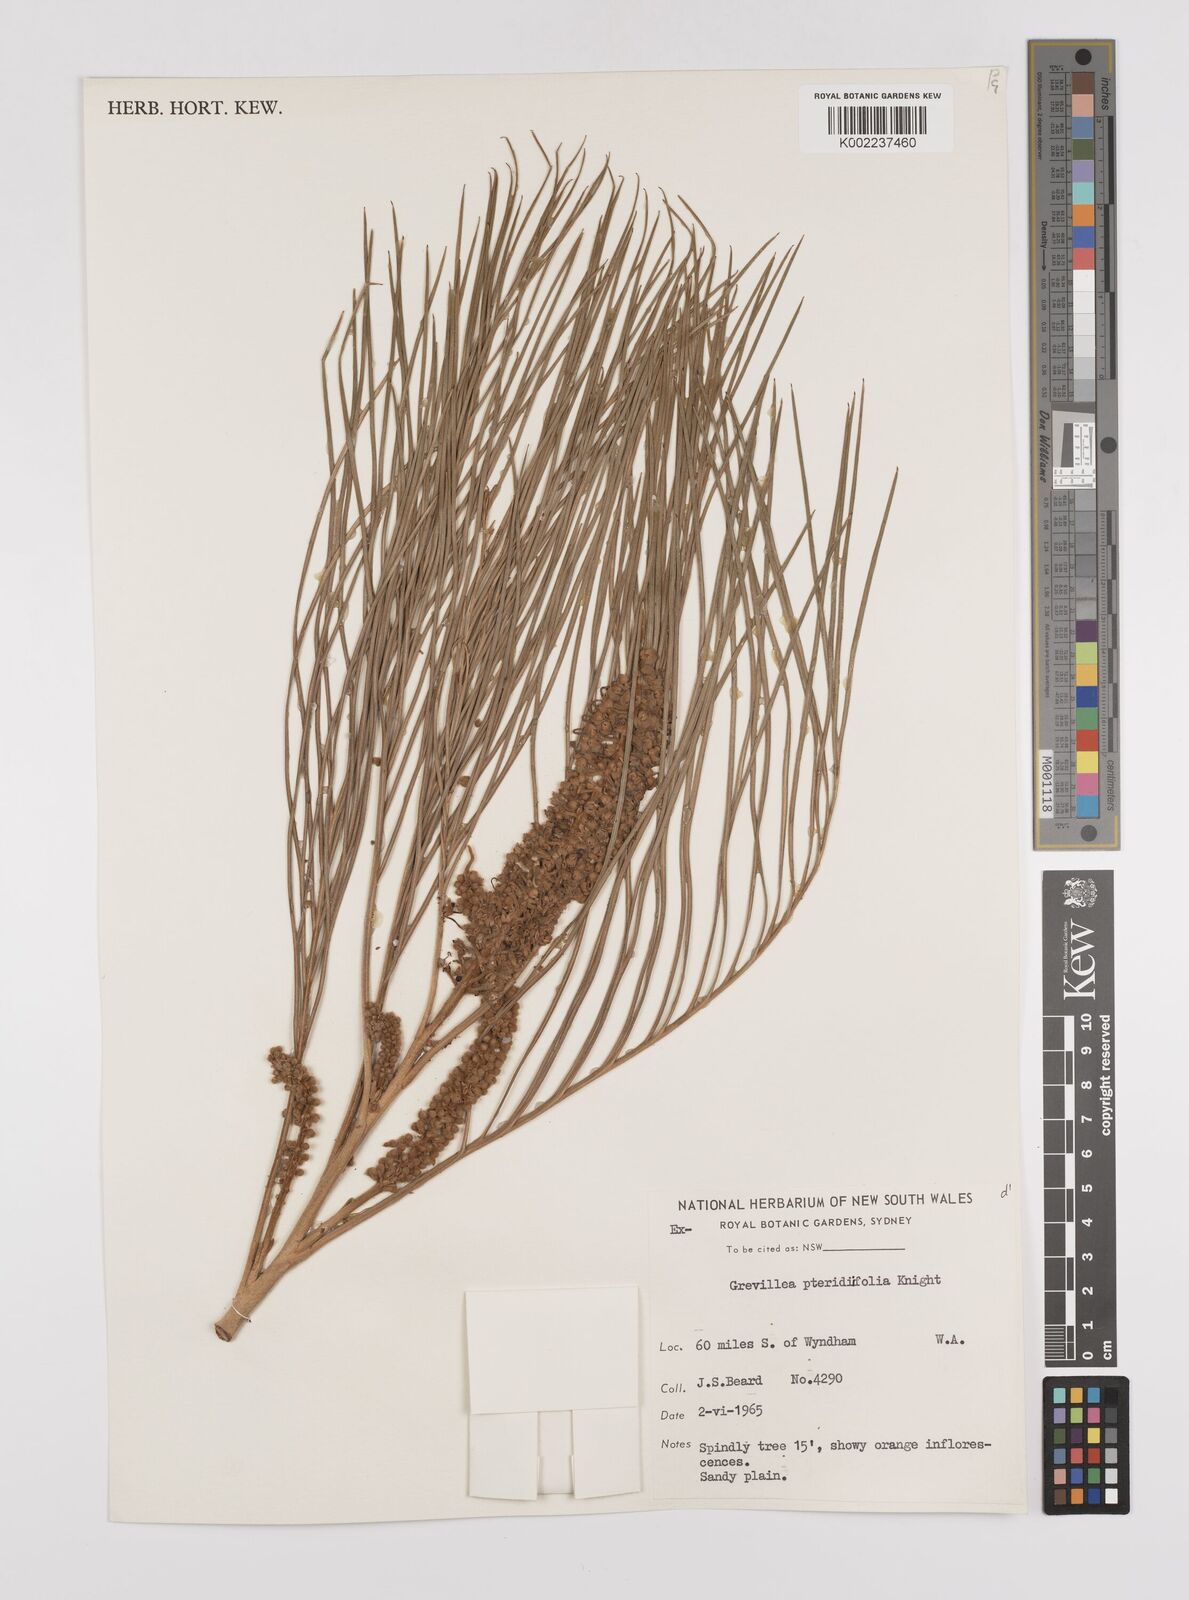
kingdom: Plantae
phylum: Tracheophyta
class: Magnoliopsida
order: Proteales
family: Proteaceae
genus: Grevillea
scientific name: Grevillea pteridifolia
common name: Golden grevillea
